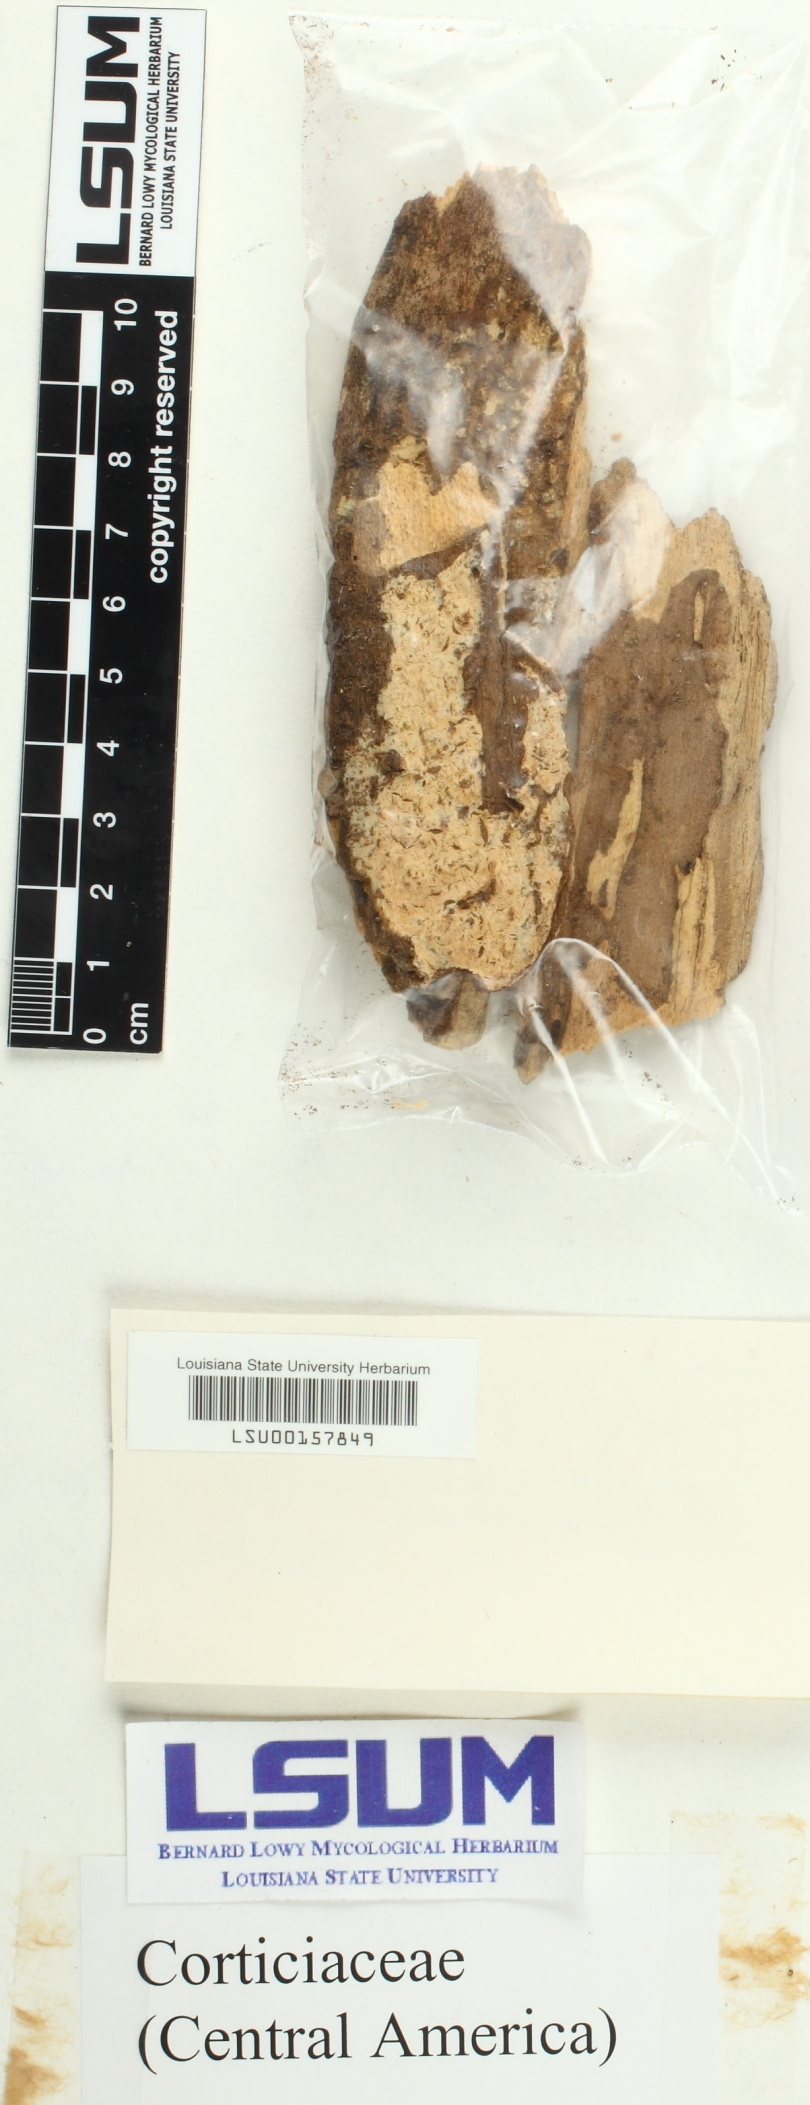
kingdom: Fungi
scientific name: Fungi
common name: Fungi
